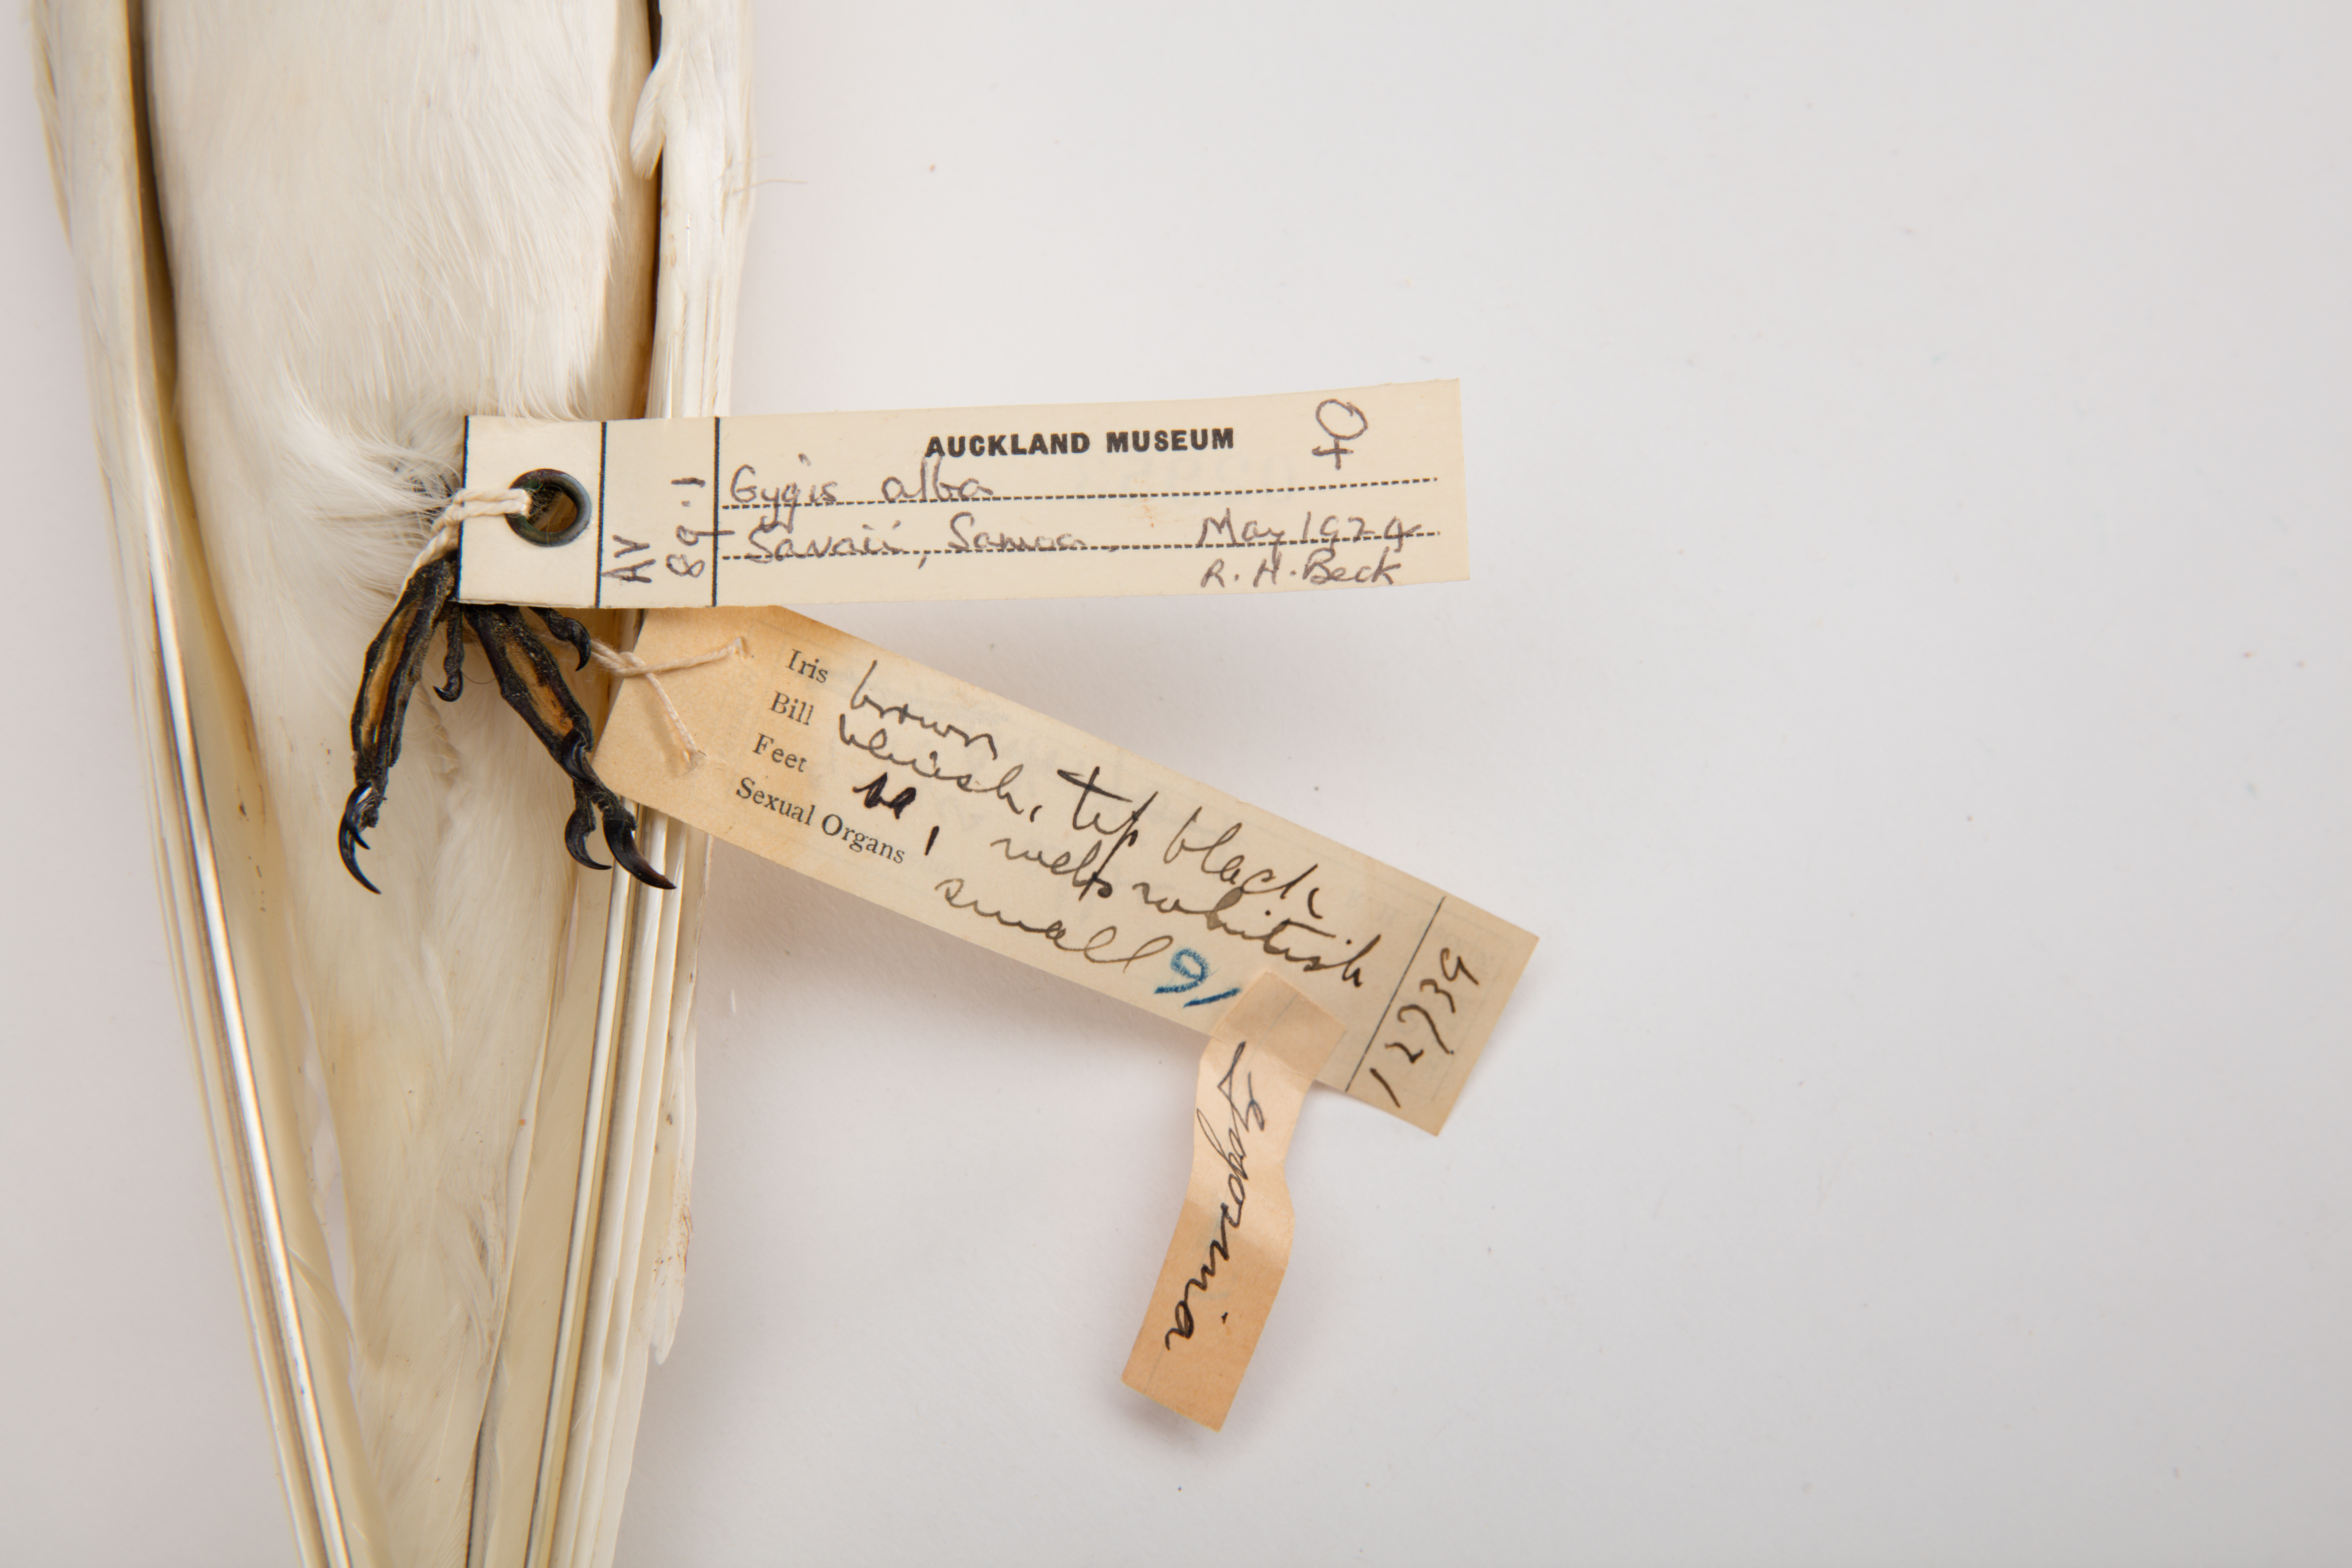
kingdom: Animalia
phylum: Chordata
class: Aves
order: Charadriiformes
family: Laridae
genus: Gygis
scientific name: Gygis alba
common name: White tern
